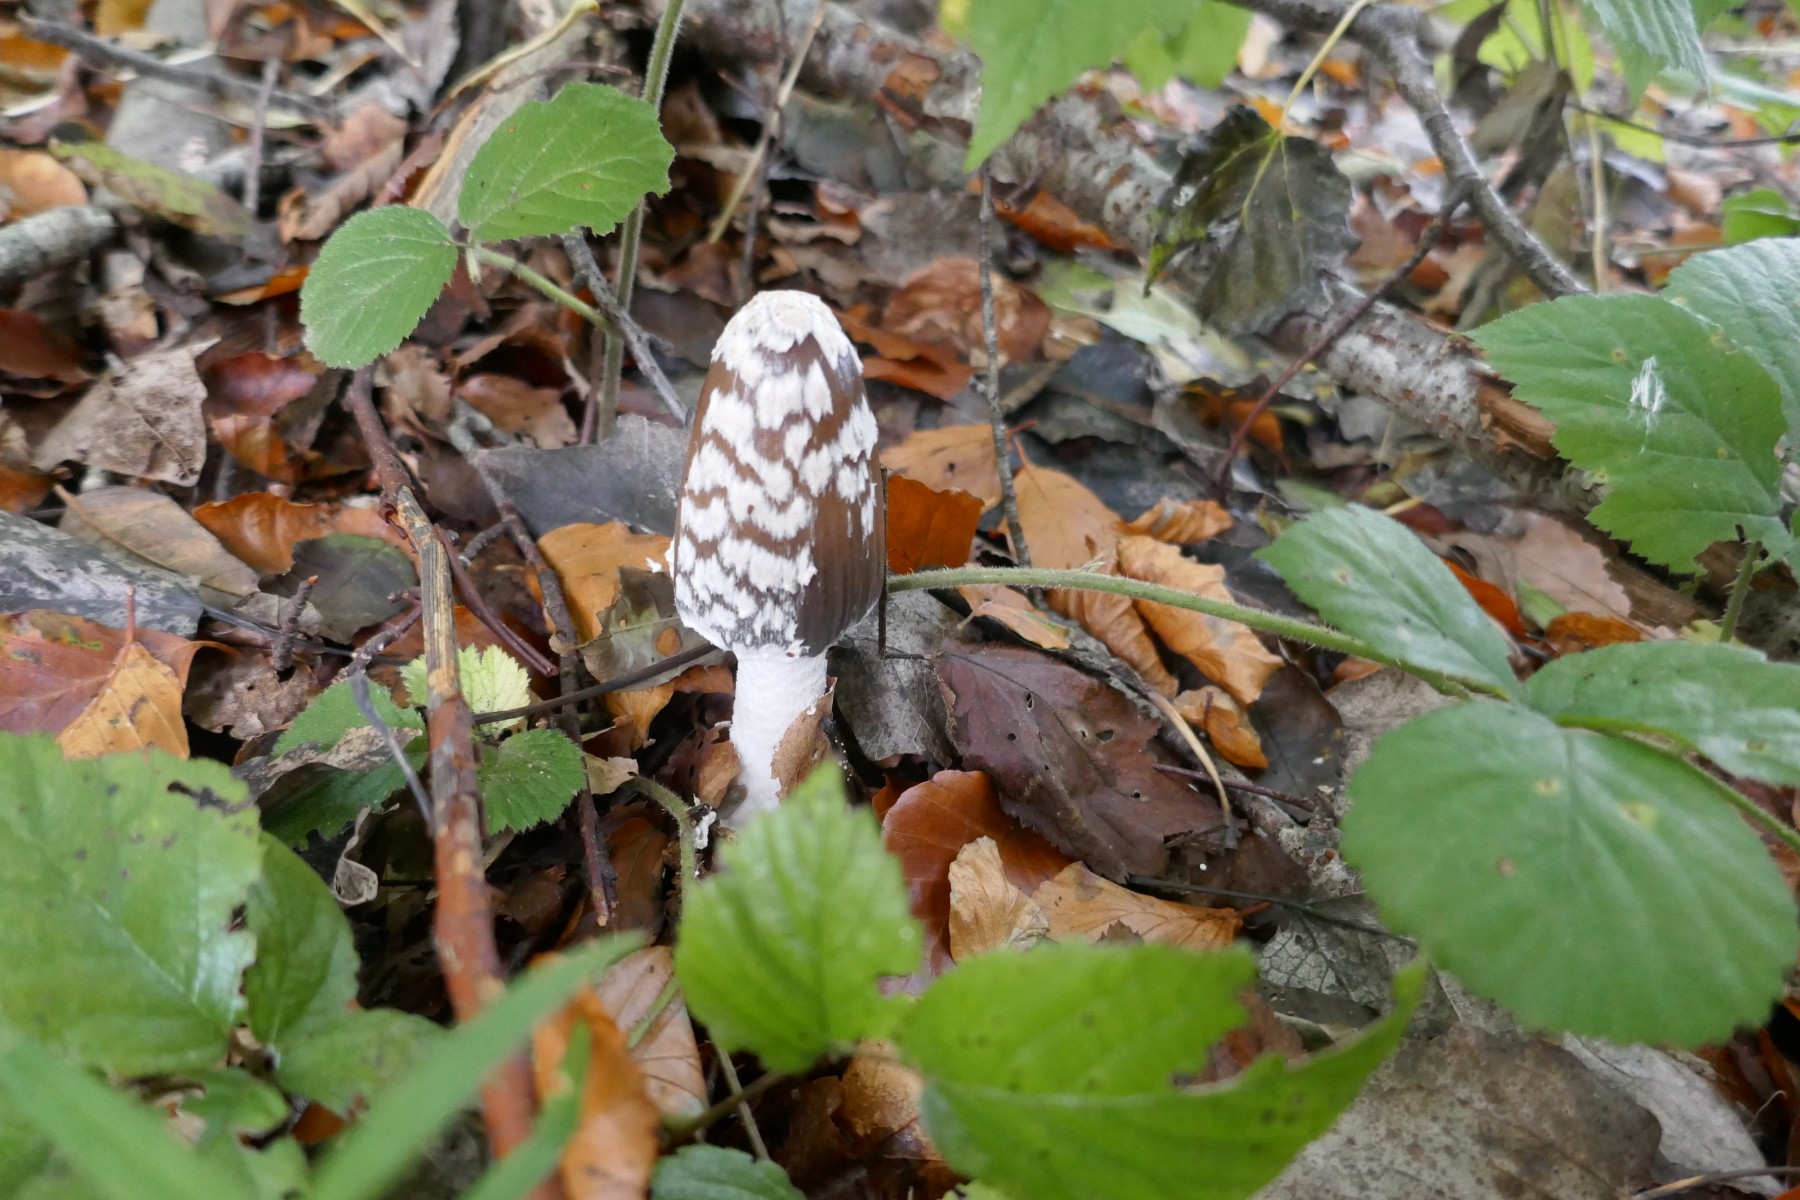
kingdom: Fungi
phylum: Basidiomycota
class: Agaricomycetes
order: Agaricales
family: Psathyrellaceae
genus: Coprinopsis
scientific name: Coprinopsis picacea
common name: skade-blækhat
